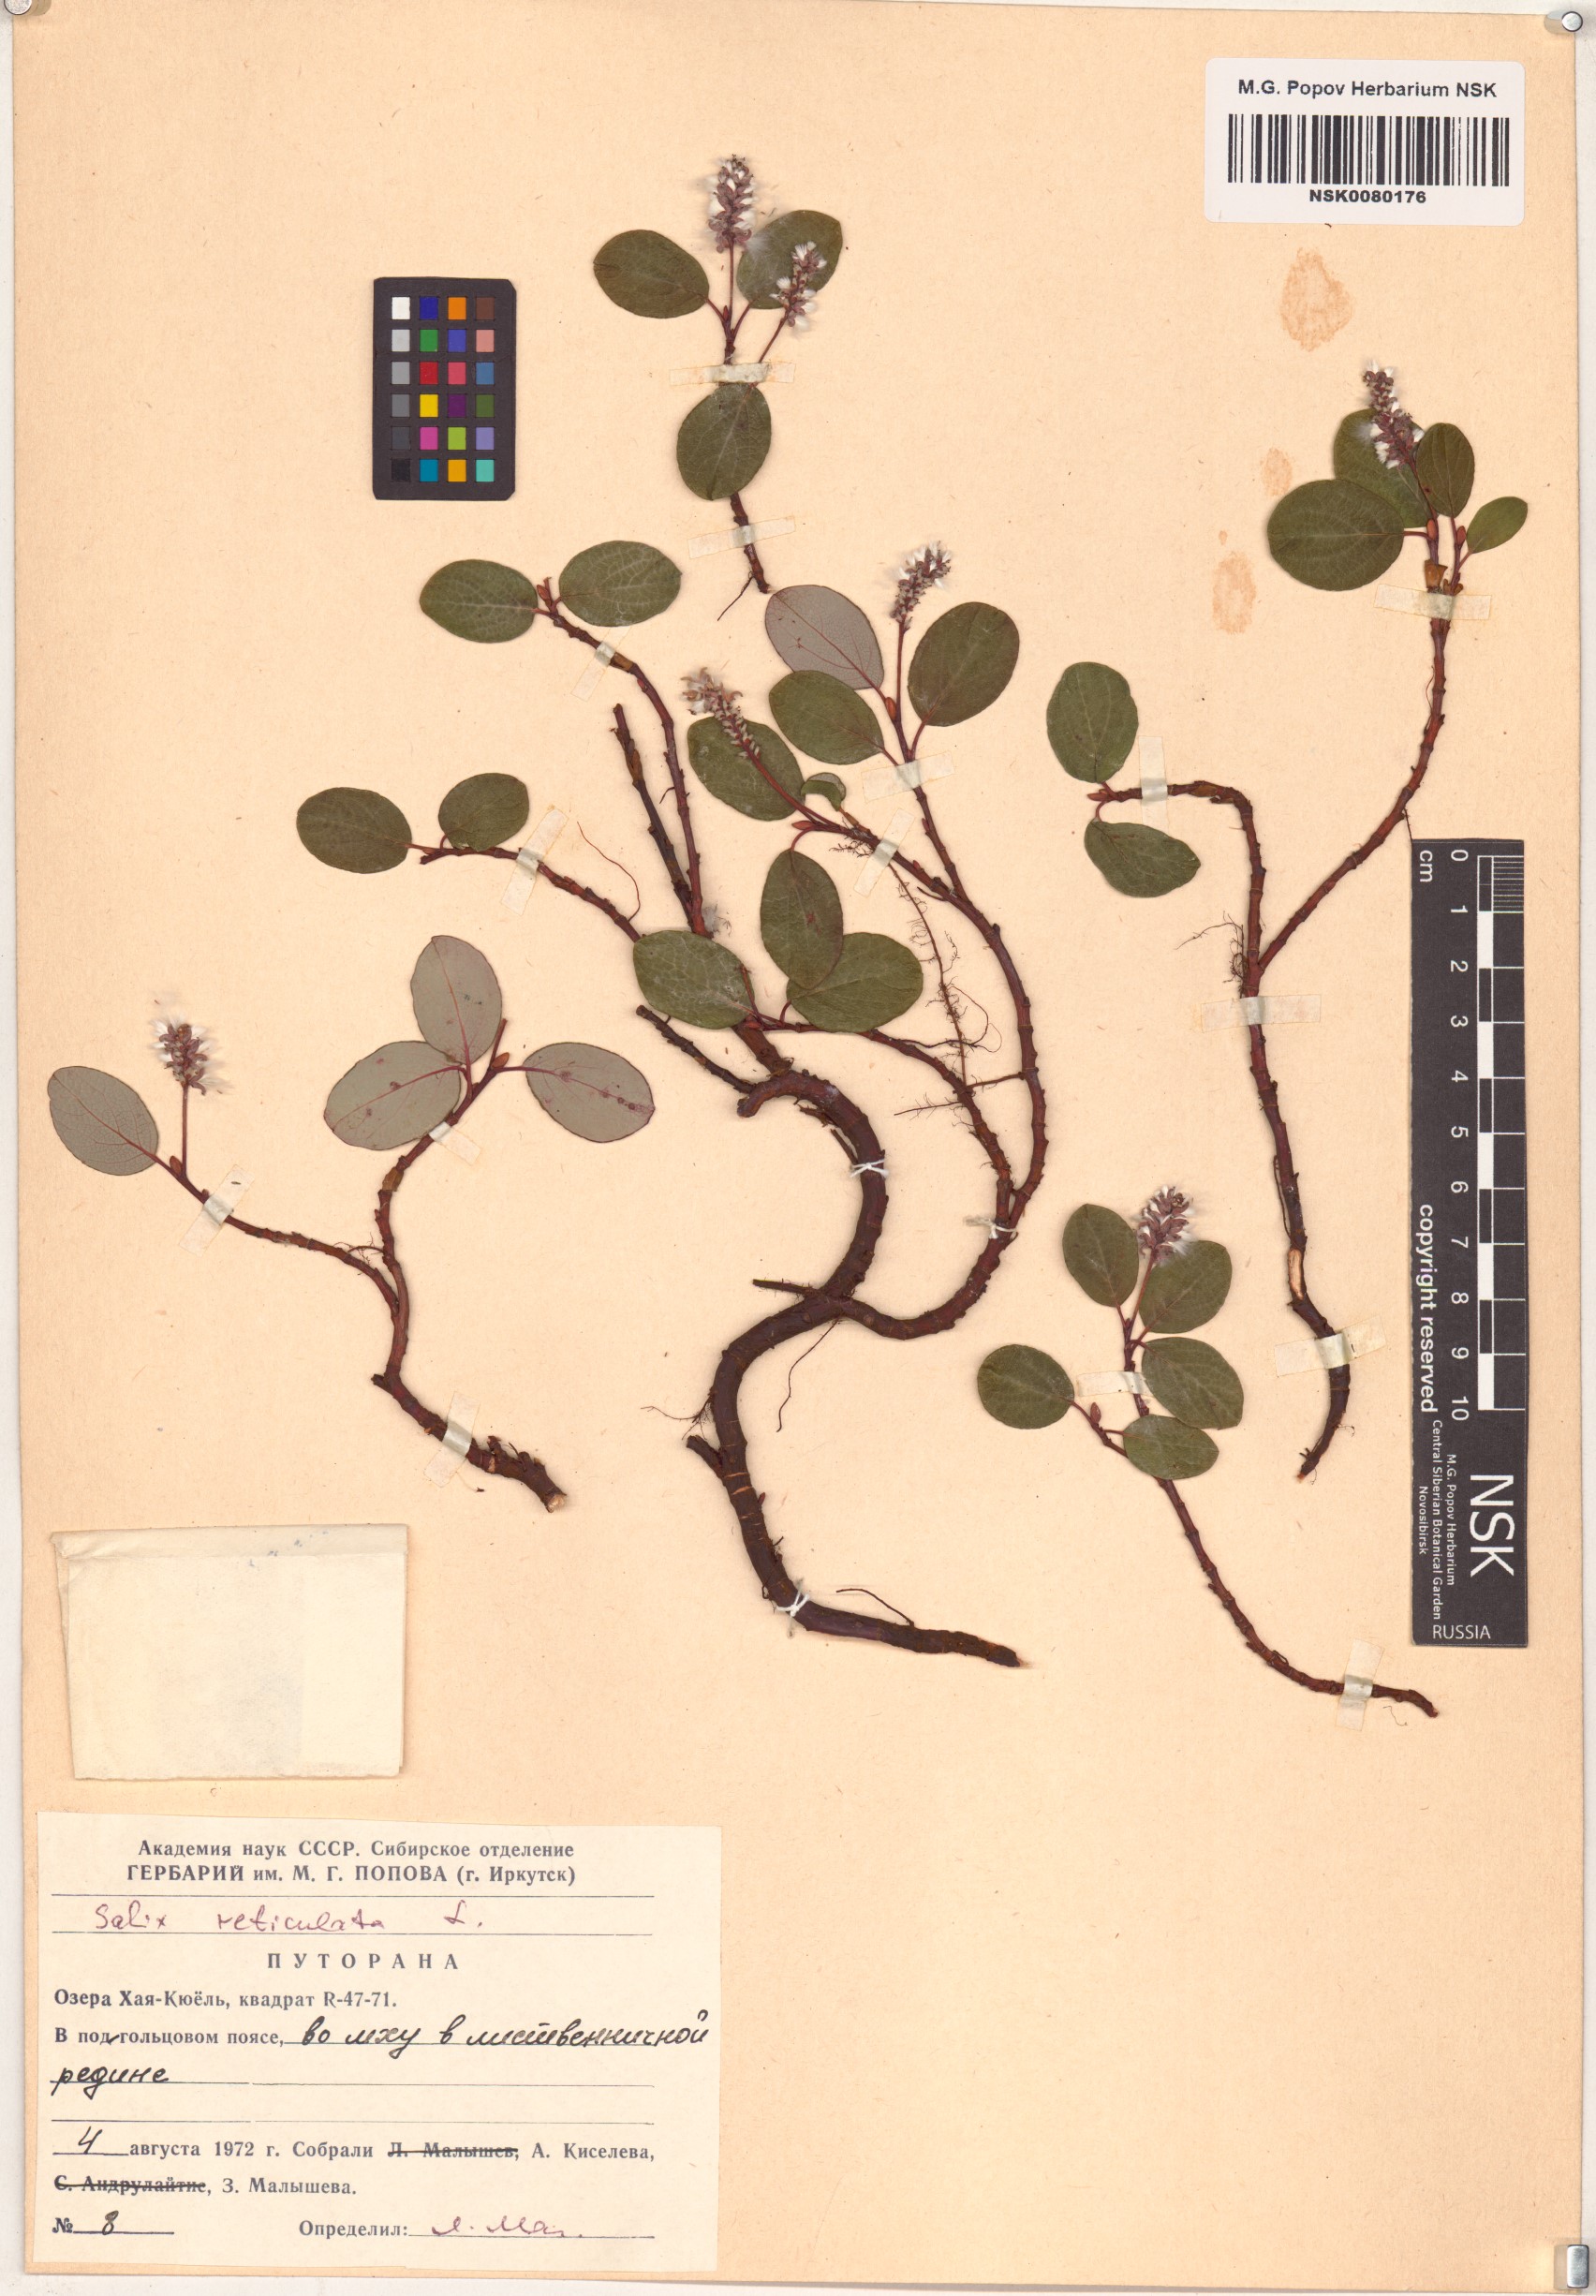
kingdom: Plantae
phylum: Tracheophyta
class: Magnoliopsida
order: Malpighiales
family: Salicaceae
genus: Salix
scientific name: Salix reticulata
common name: Net-leaved willow
